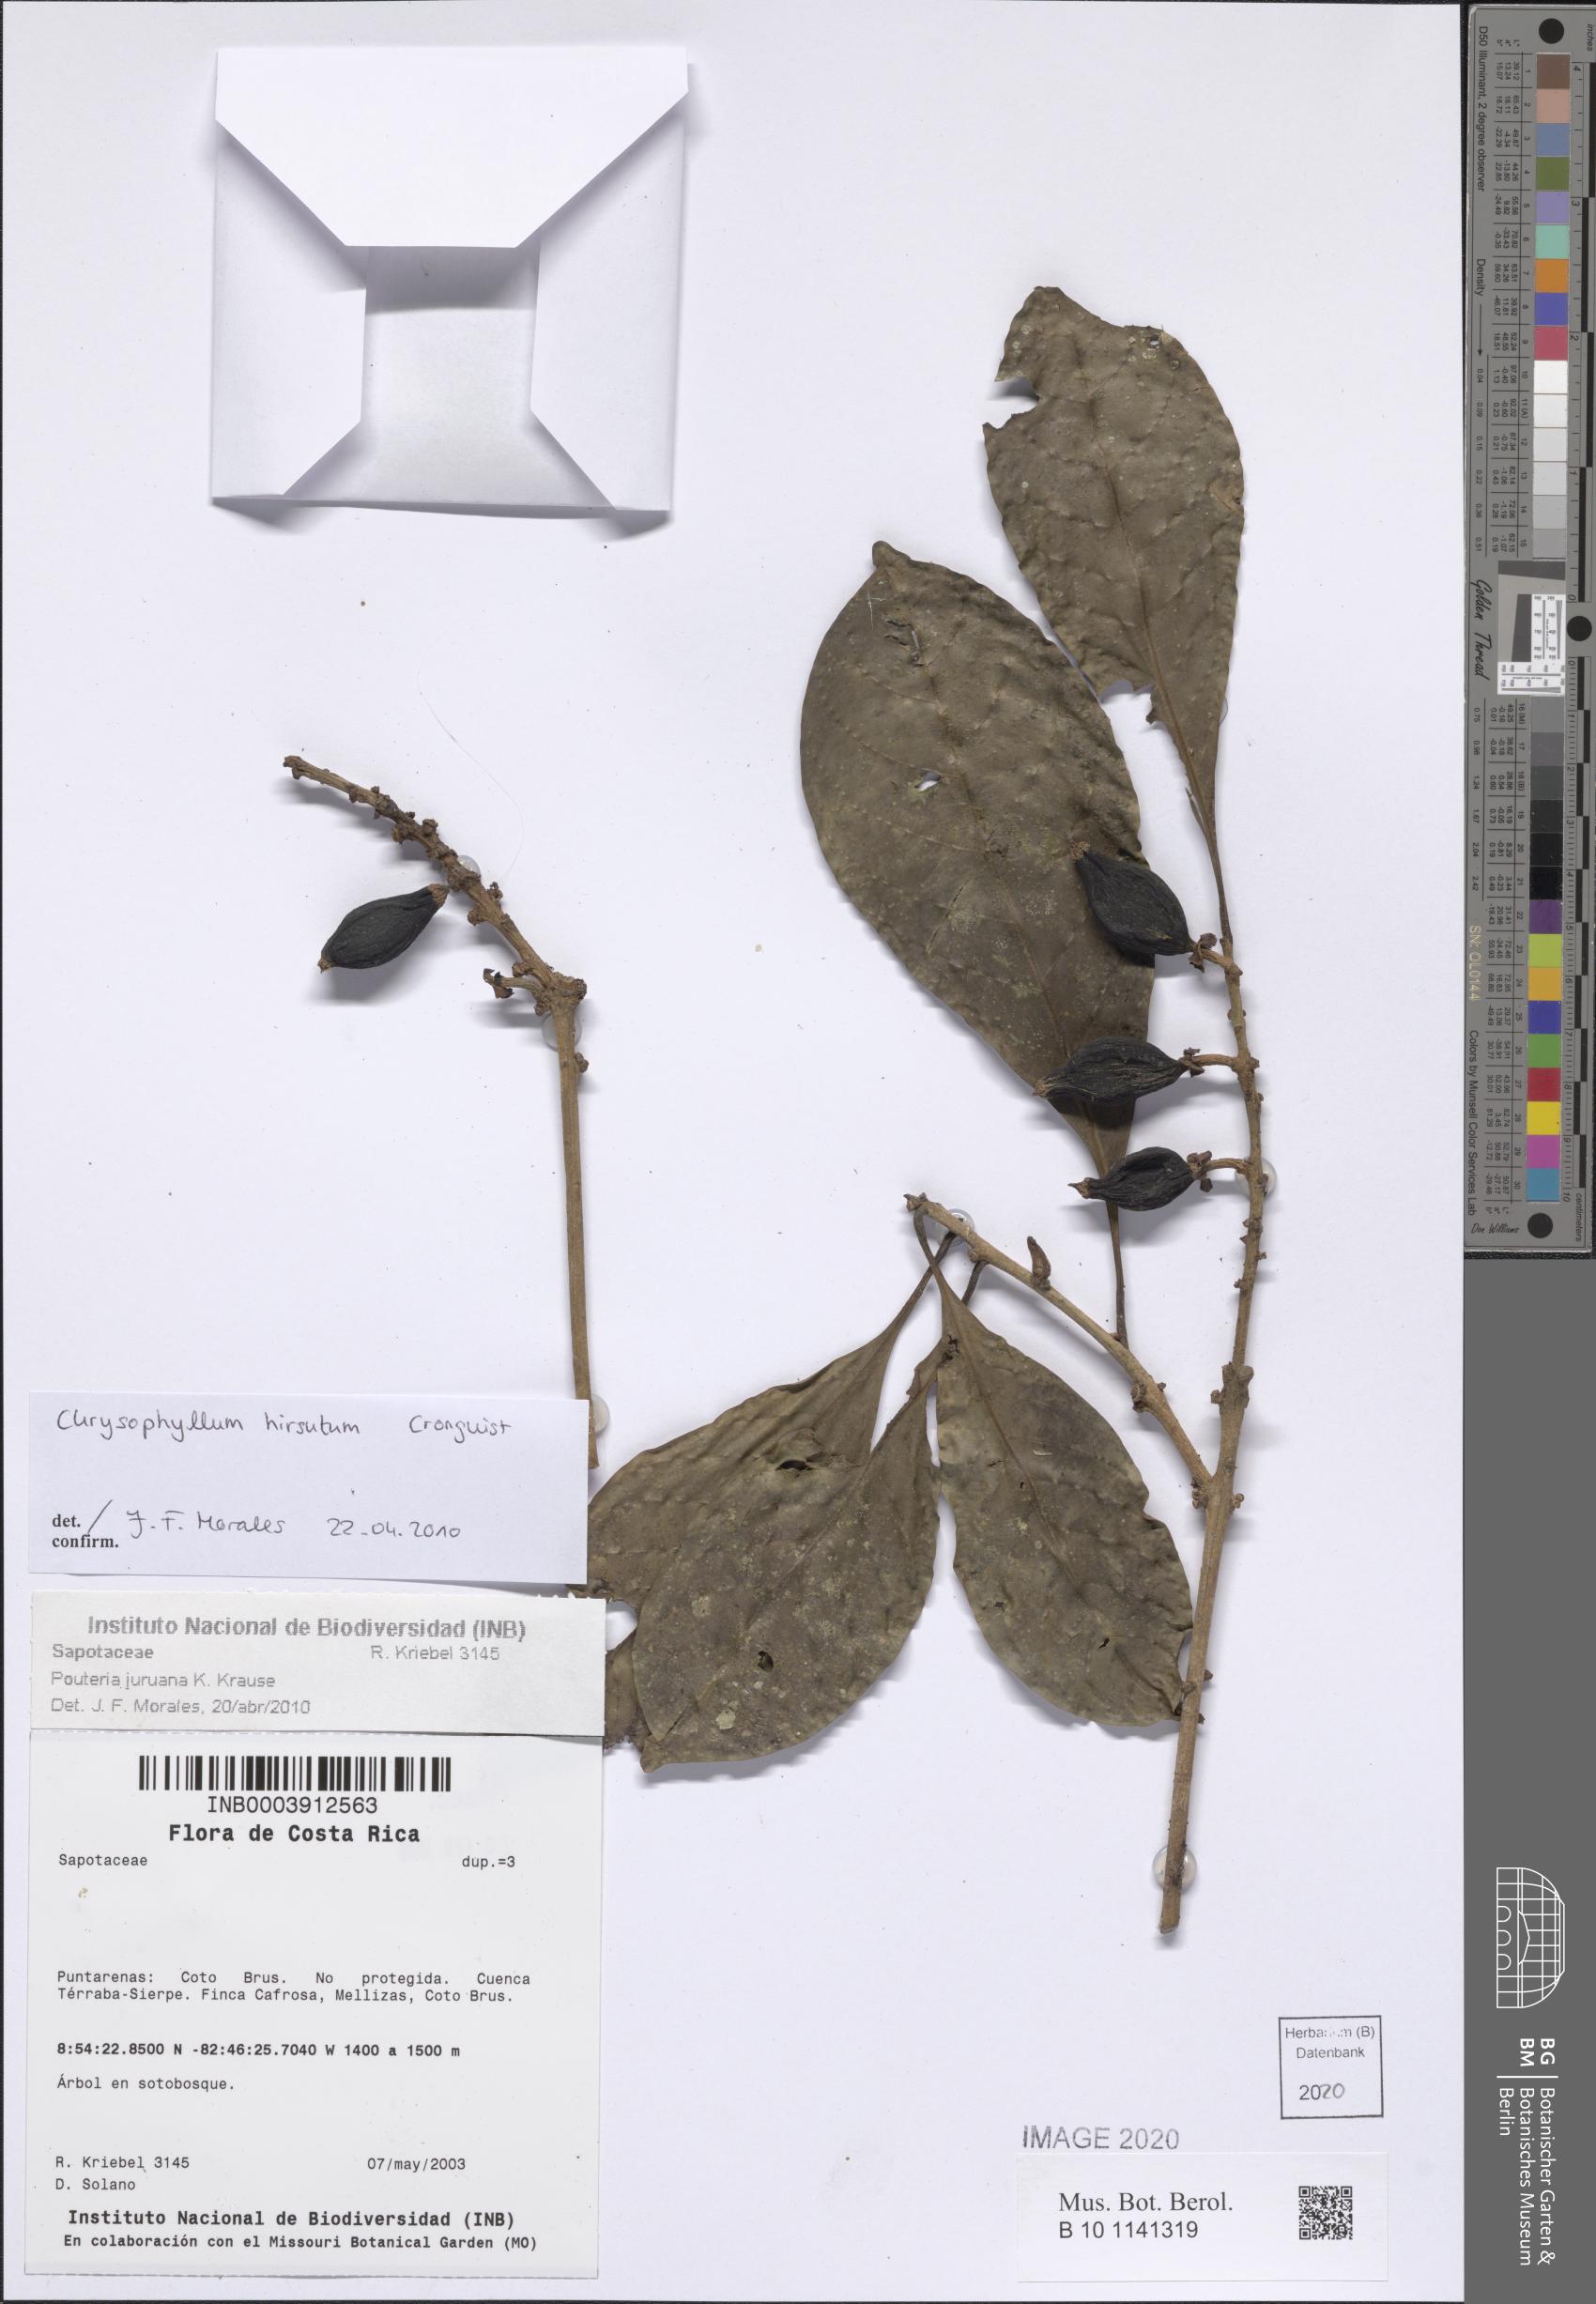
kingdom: Plantae
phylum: Tracheophyta
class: Magnoliopsida
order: Ericales
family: Sapotaceae
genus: Pouteria
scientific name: Pouteria juruana
